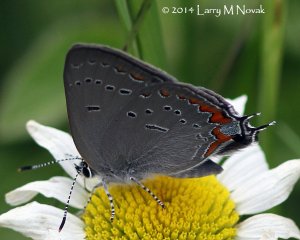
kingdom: Animalia
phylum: Arthropoda
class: Insecta
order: Lepidoptera
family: Lycaenidae
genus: Strymon
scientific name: Strymon acadica
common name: Acadian Hairstreak
